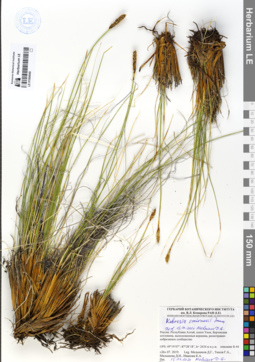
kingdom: Plantae
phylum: Tracheophyta
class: Liliopsida
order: Poales
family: Cyperaceae
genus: Carex
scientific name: Carex borealipolaris
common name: Siberian bog sedge
